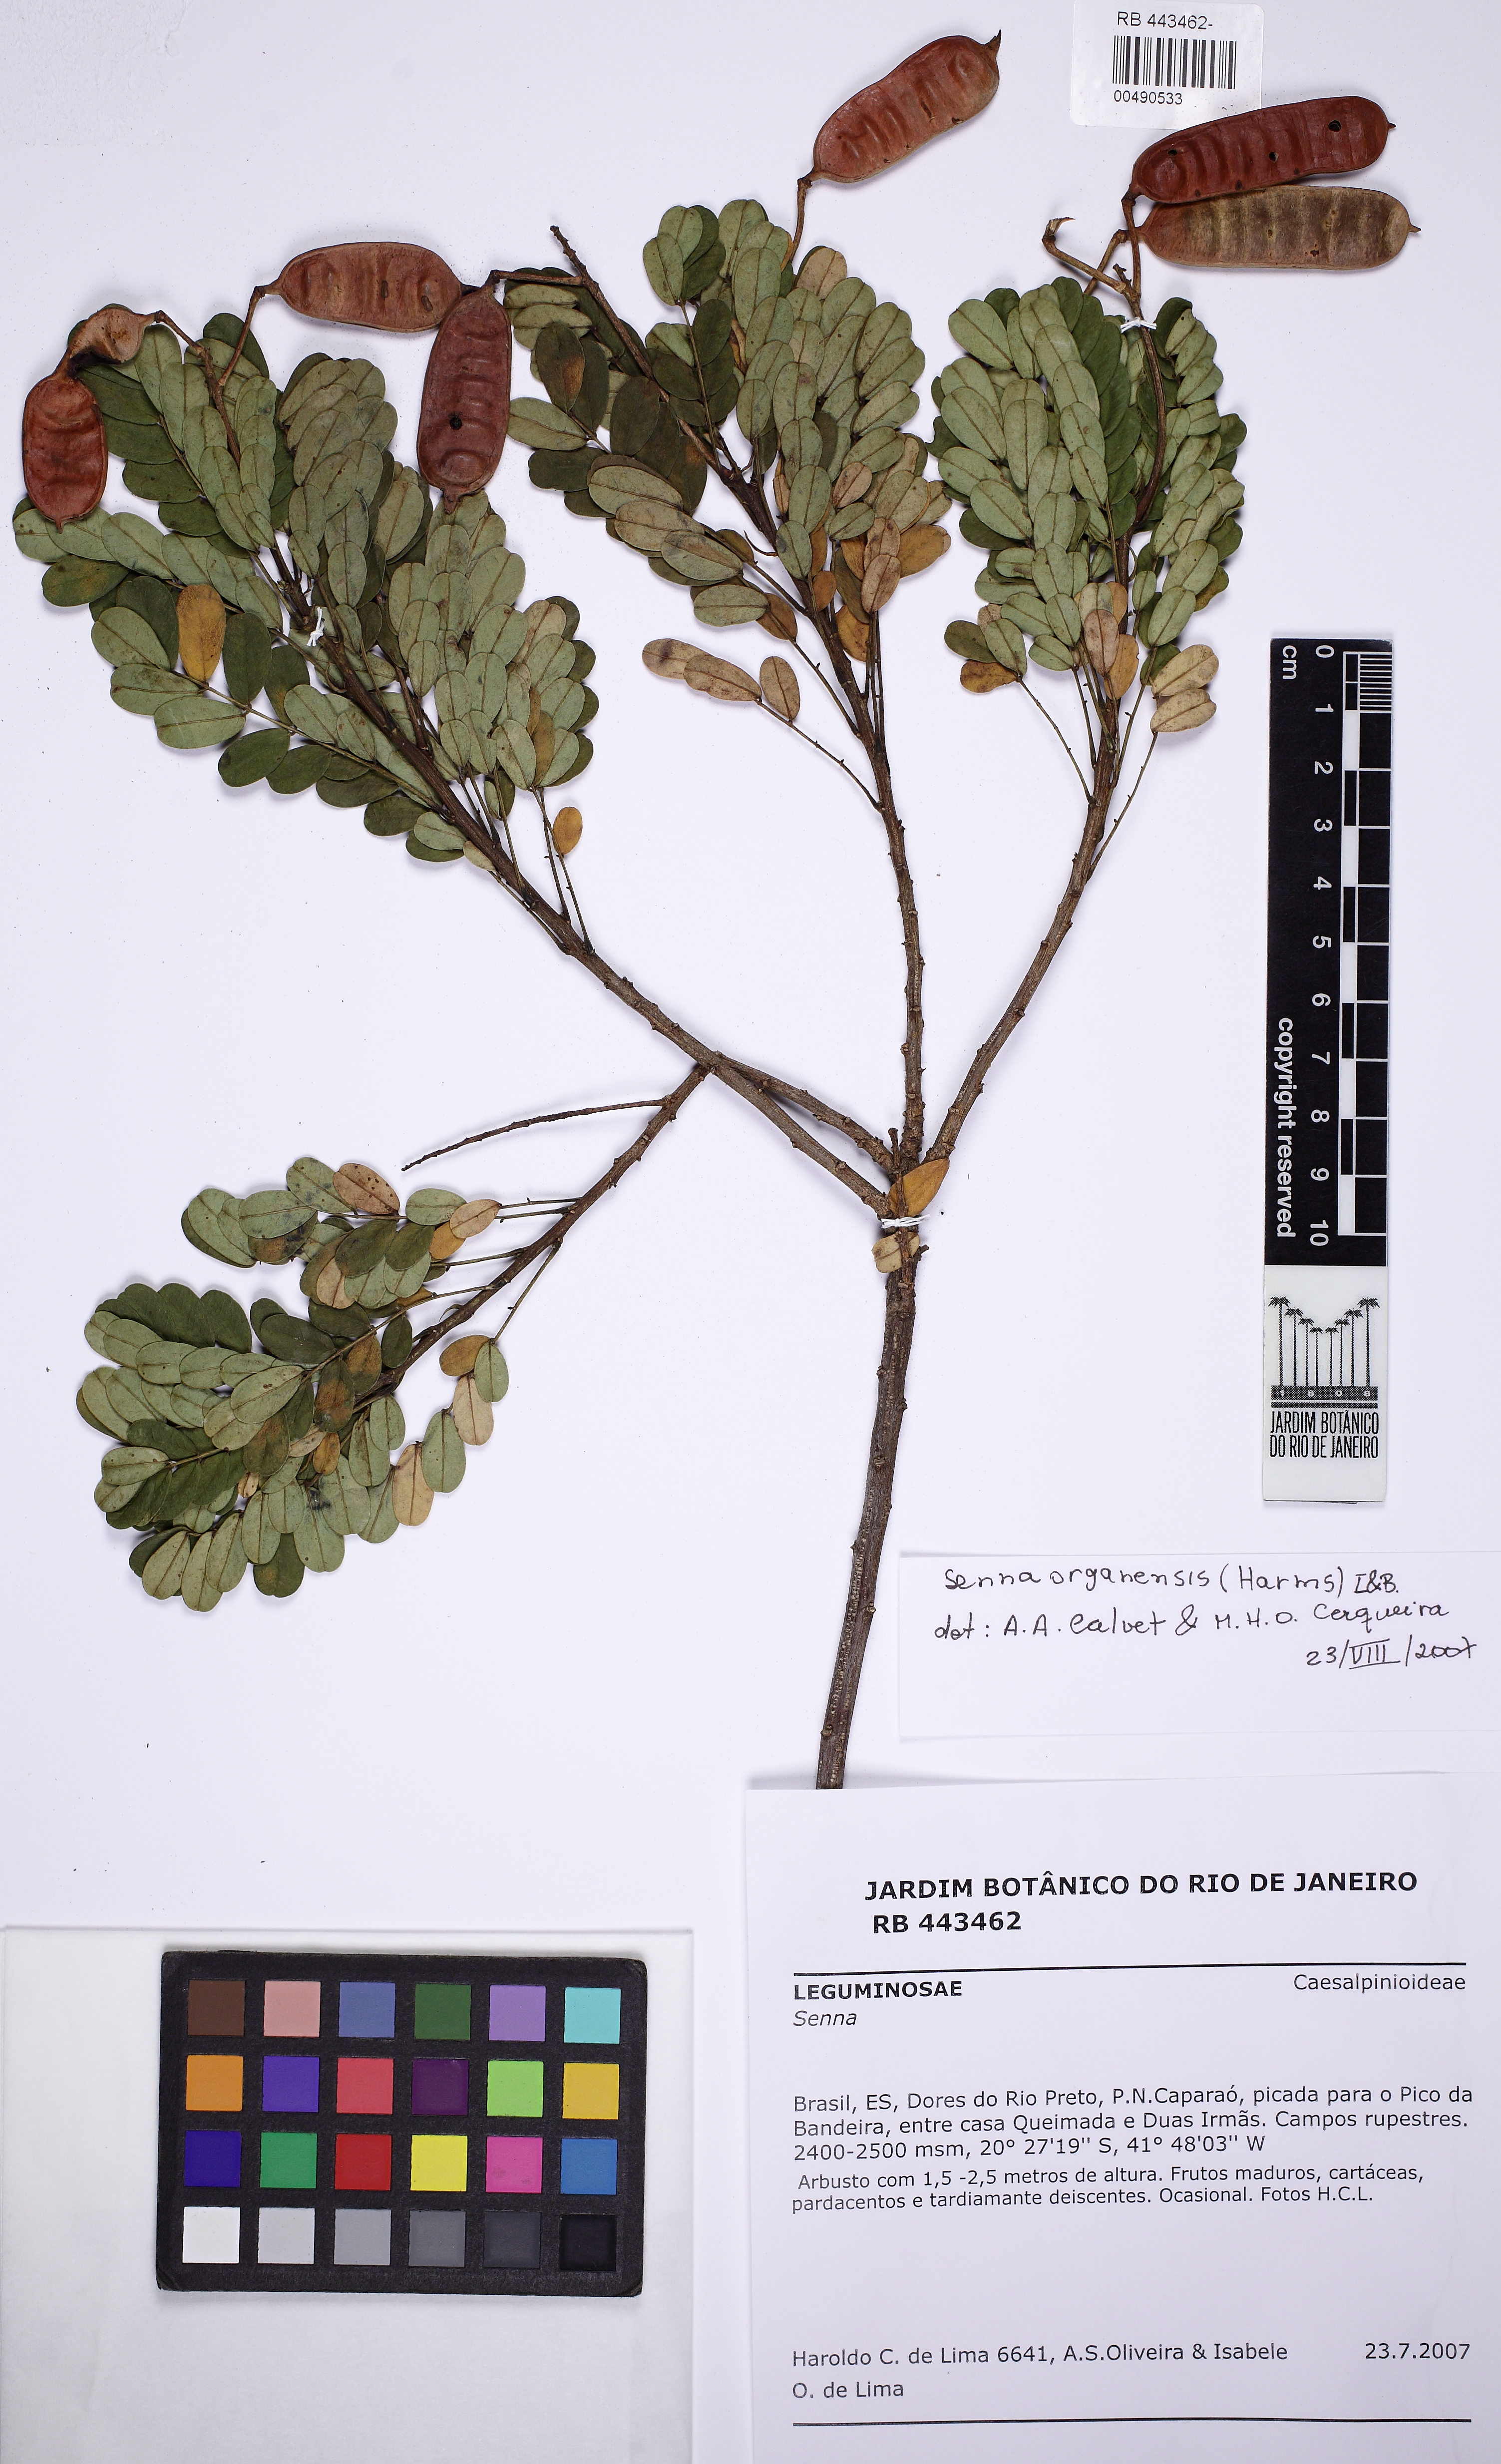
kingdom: Plantae
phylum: Tracheophyta
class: Magnoliopsida
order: Fabales
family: Fabaceae
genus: Senna
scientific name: Senna organensis
